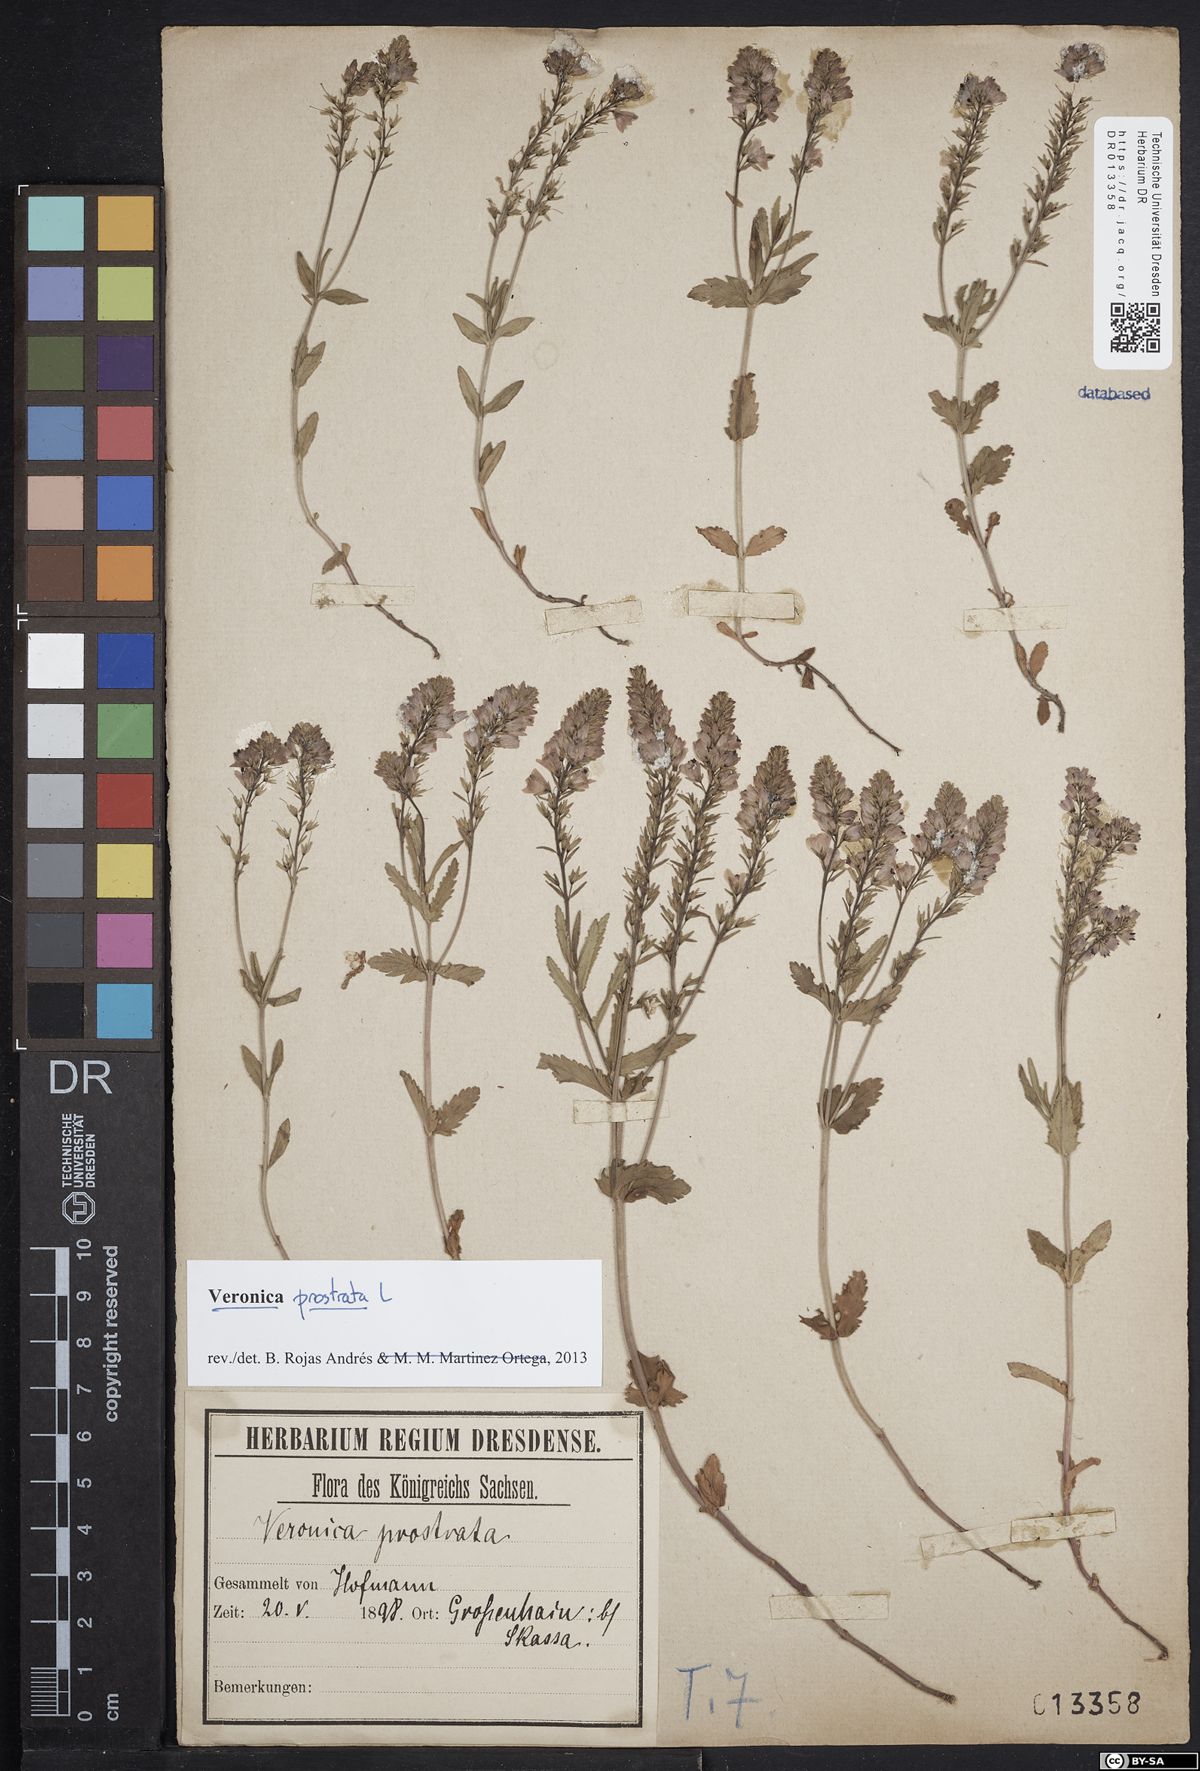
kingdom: Plantae
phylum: Tracheophyta
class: Magnoliopsida
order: Lamiales
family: Plantaginaceae
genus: Veronica
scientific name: Veronica prostrata
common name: Prostrate speedwell
